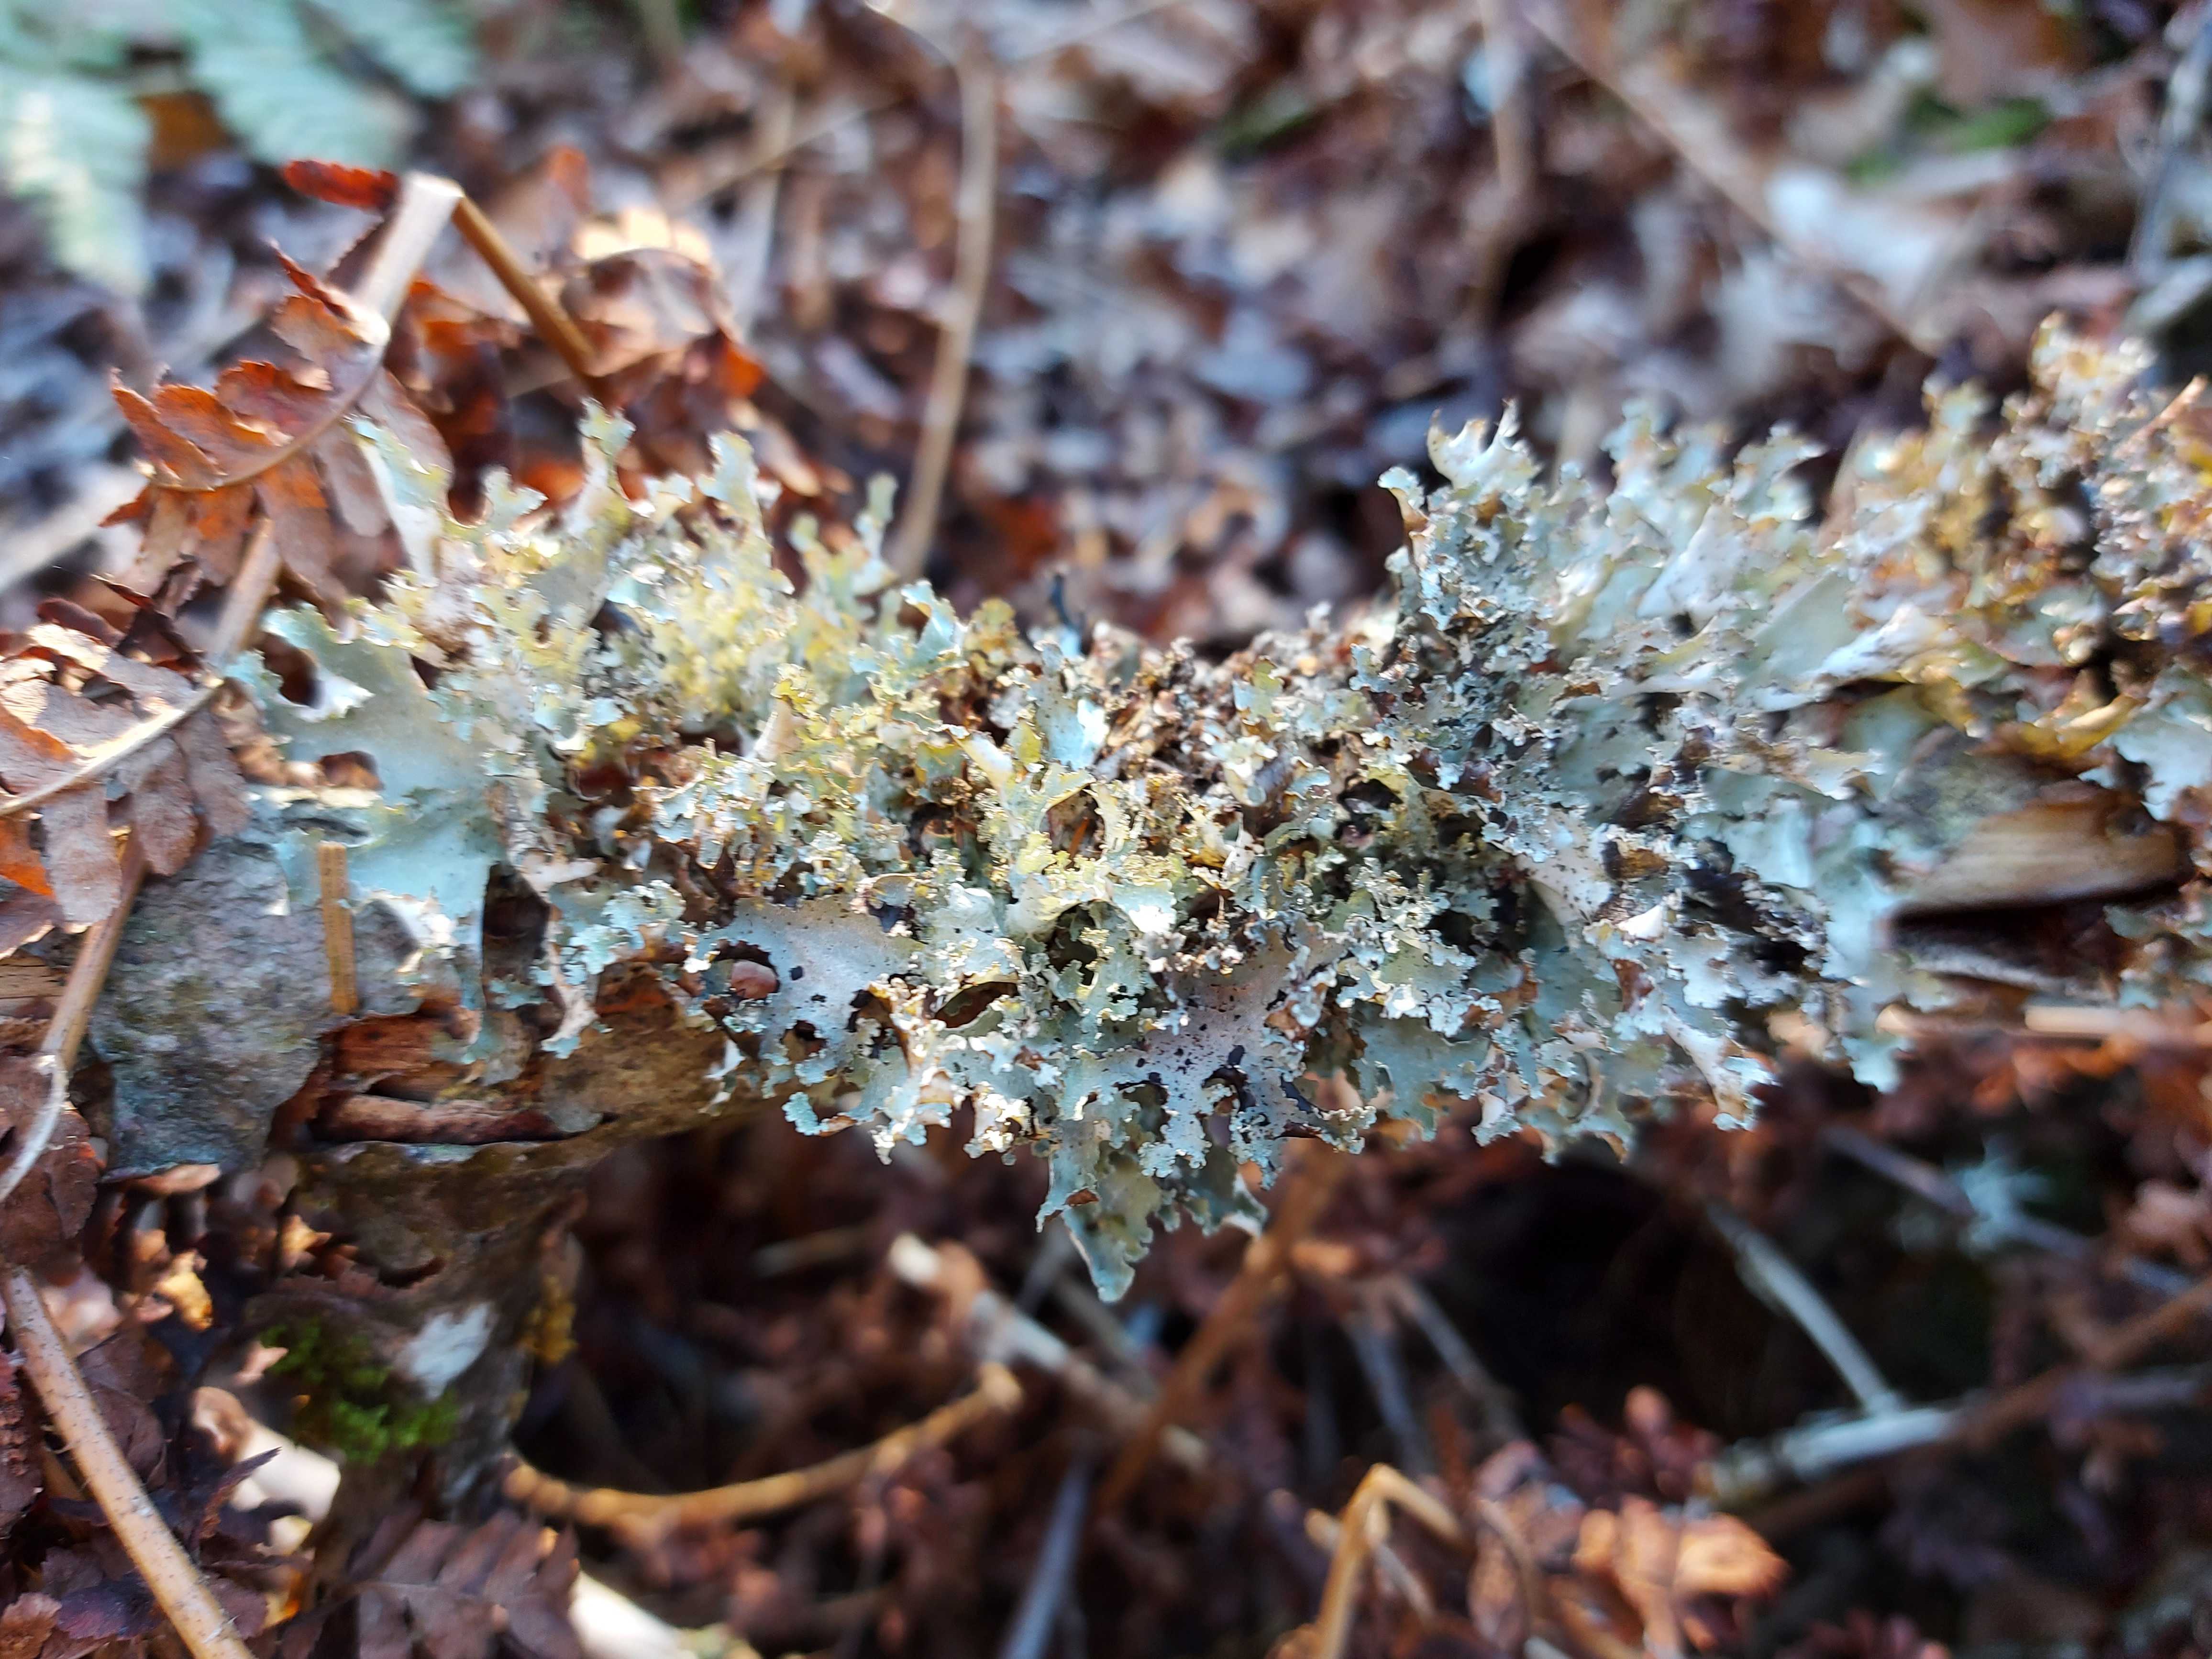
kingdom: Fungi
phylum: Ascomycota
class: Lecanoromycetes
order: Lecanorales
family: Parmeliaceae
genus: Platismatia
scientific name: Platismatia glauca
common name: blågrå papirlav
